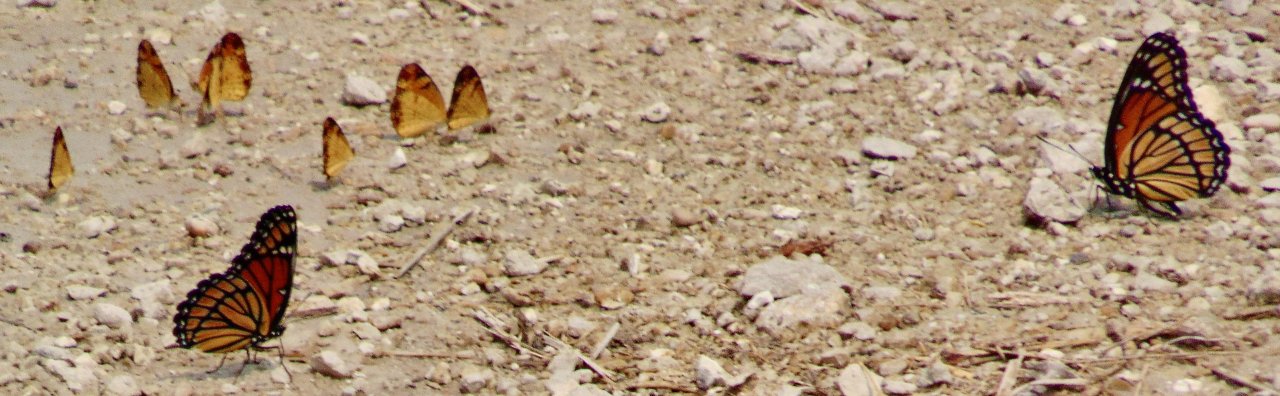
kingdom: Animalia
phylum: Arthropoda
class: Insecta
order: Lepidoptera
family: Nymphalidae
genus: Phyciodes
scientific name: Phyciodes tharos
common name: Pearl Crescent
